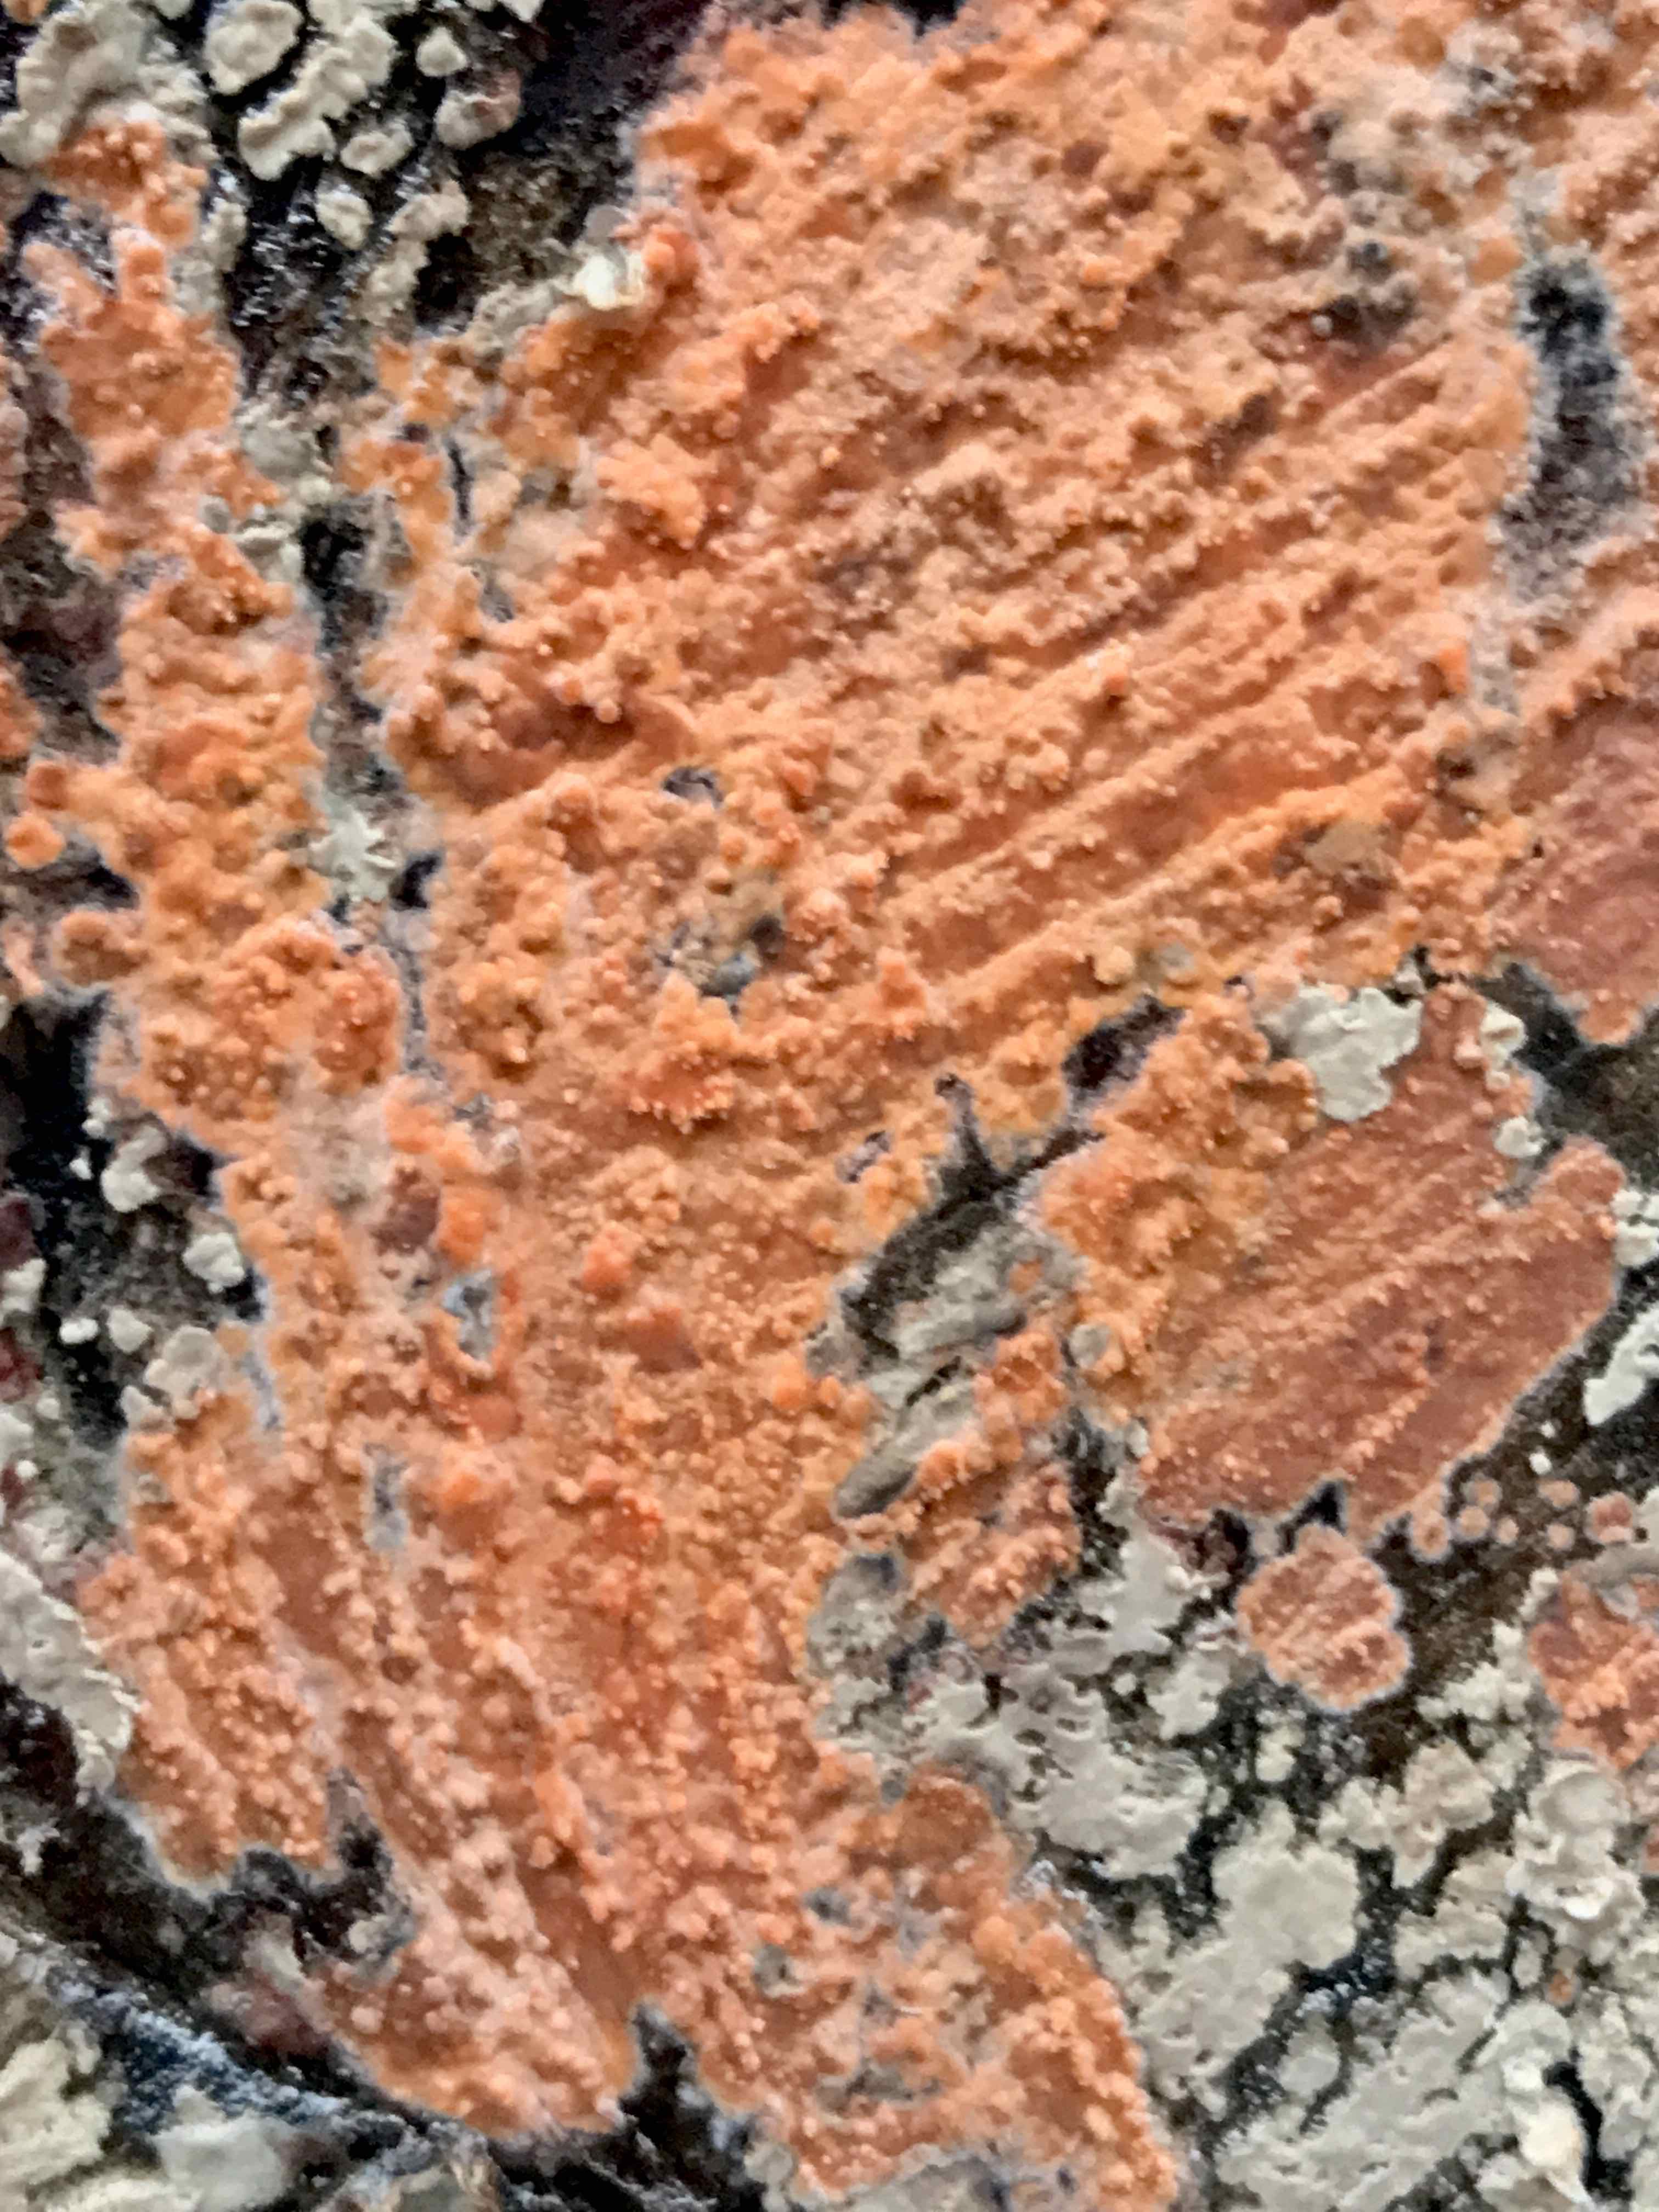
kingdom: Fungi
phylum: Basidiomycota
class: Agaricomycetes
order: Russulales
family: Peniophoraceae
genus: Peniophora
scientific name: Peniophora incarnata
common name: laksefarvet voksskind
